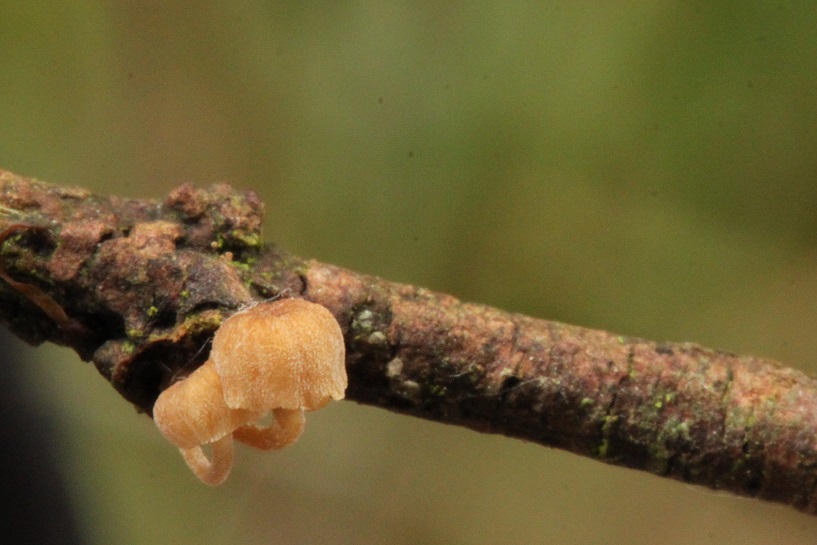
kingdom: Fungi
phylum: Basidiomycota
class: Agaricomycetes
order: Agaricales
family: Mycenaceae
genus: Mycena
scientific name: Mycena juniperina
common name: ene-Huesvamp
